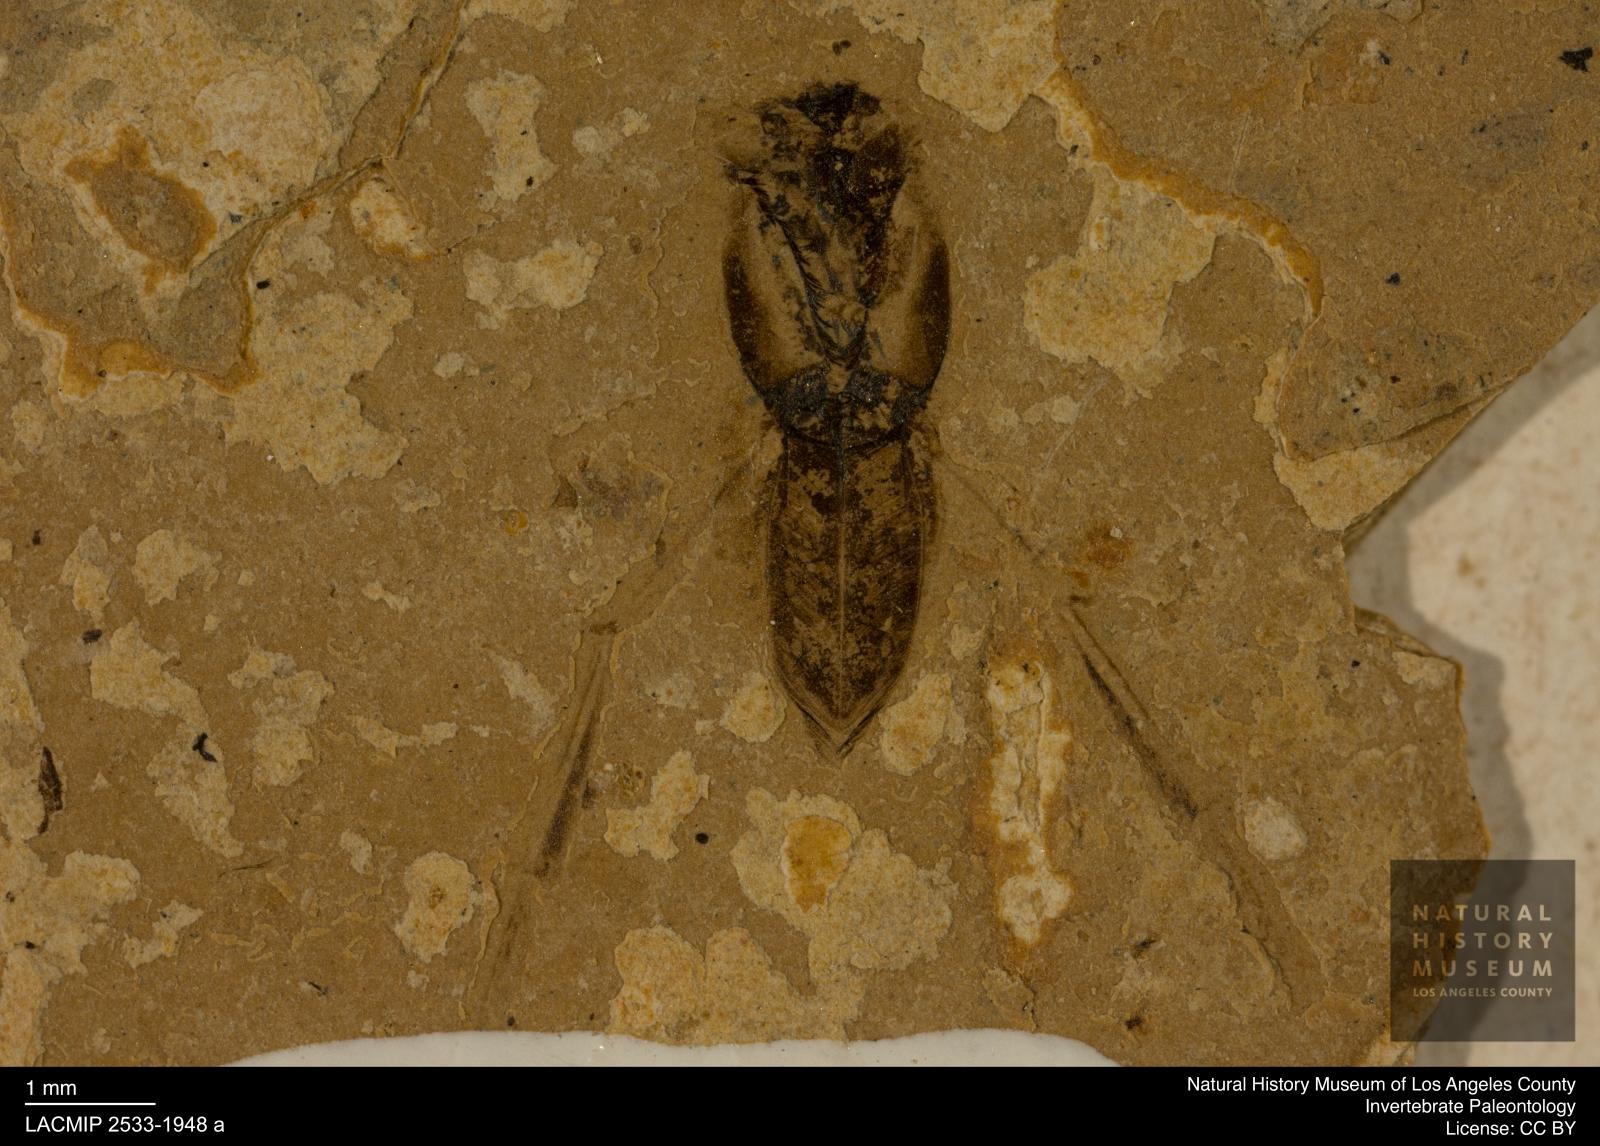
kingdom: Animalia
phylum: Arthropoda
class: Insecta
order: Hemiptera
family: Notonectidae
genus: Anisops
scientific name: Anisops Notonecta deichmuelleri
